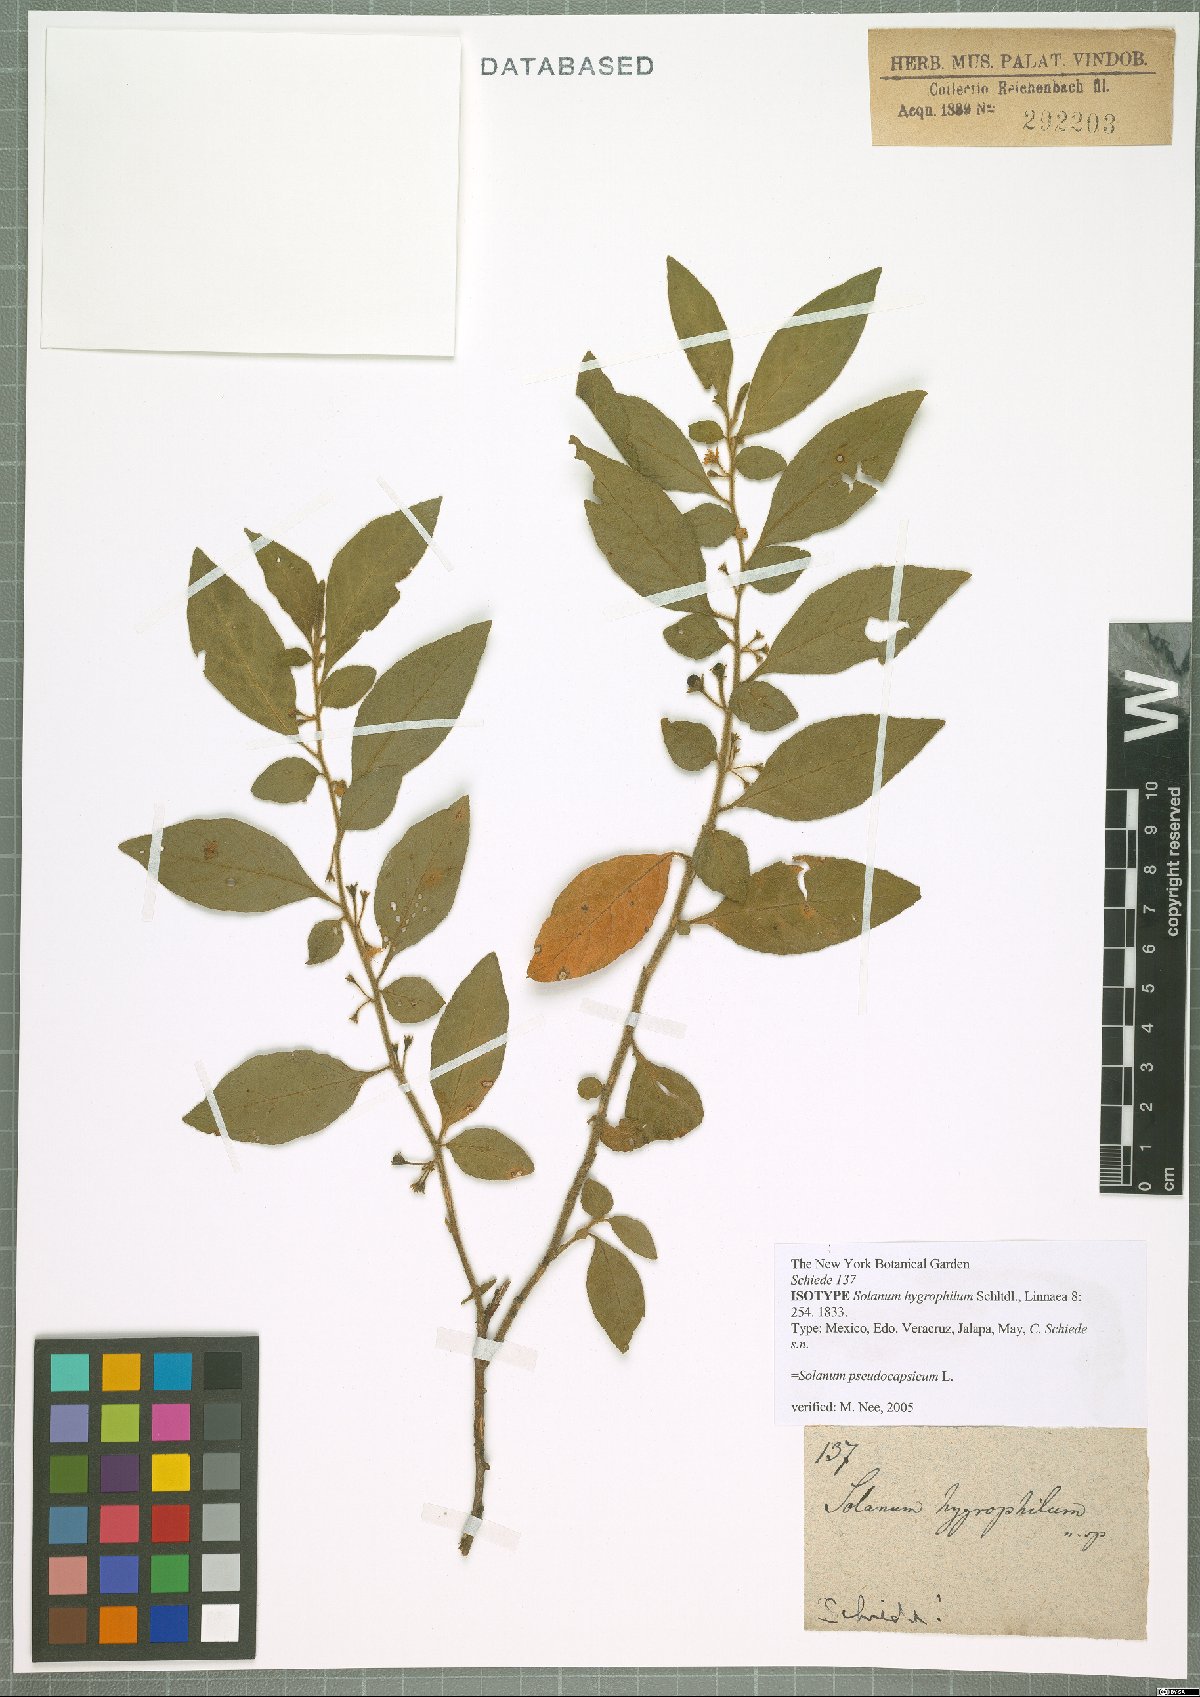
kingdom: Plantae
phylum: Tracheophyta
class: Magnoliopsida
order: Solanales
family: Solanaceae
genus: Solanum
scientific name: Solanum pseudocapsicum
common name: Jerusalem cherry
